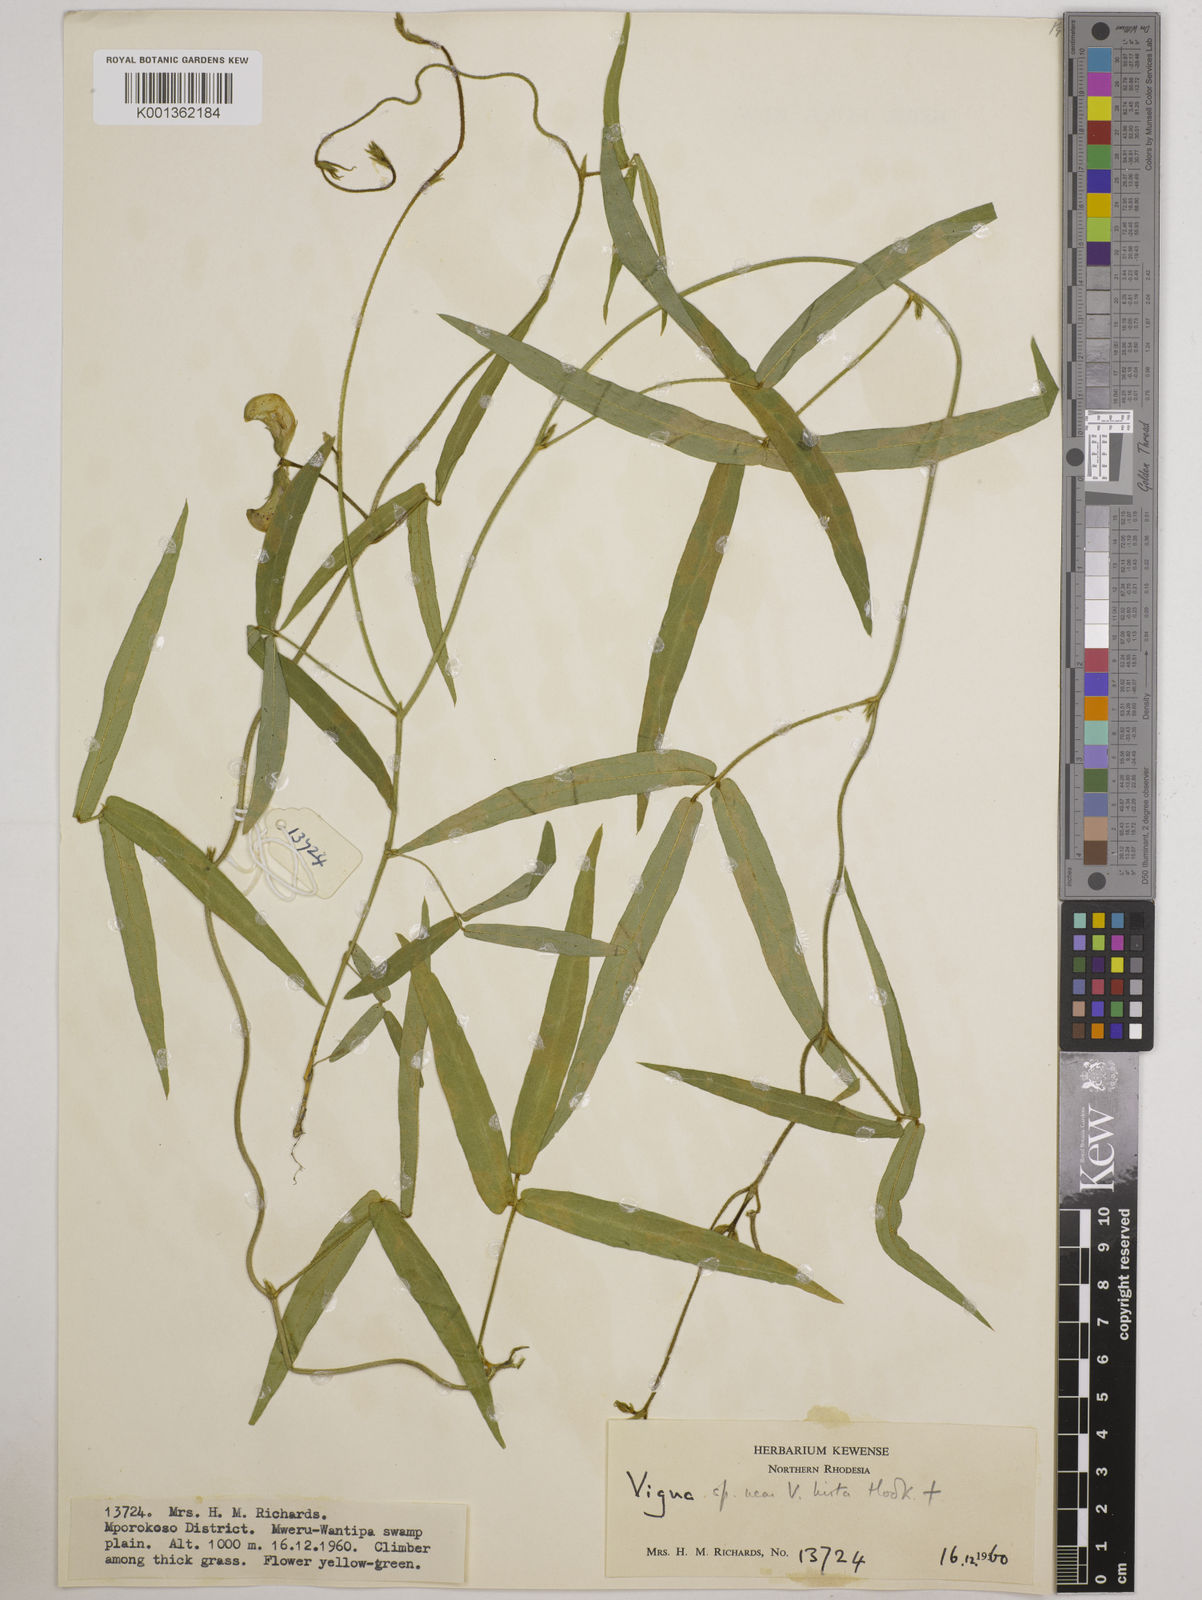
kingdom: Plantae
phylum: Tracheophyta
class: Magnoliopsida
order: Fabales
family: Fabaceae
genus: Vigna
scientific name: Vigna vexillata
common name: Zombi pea
